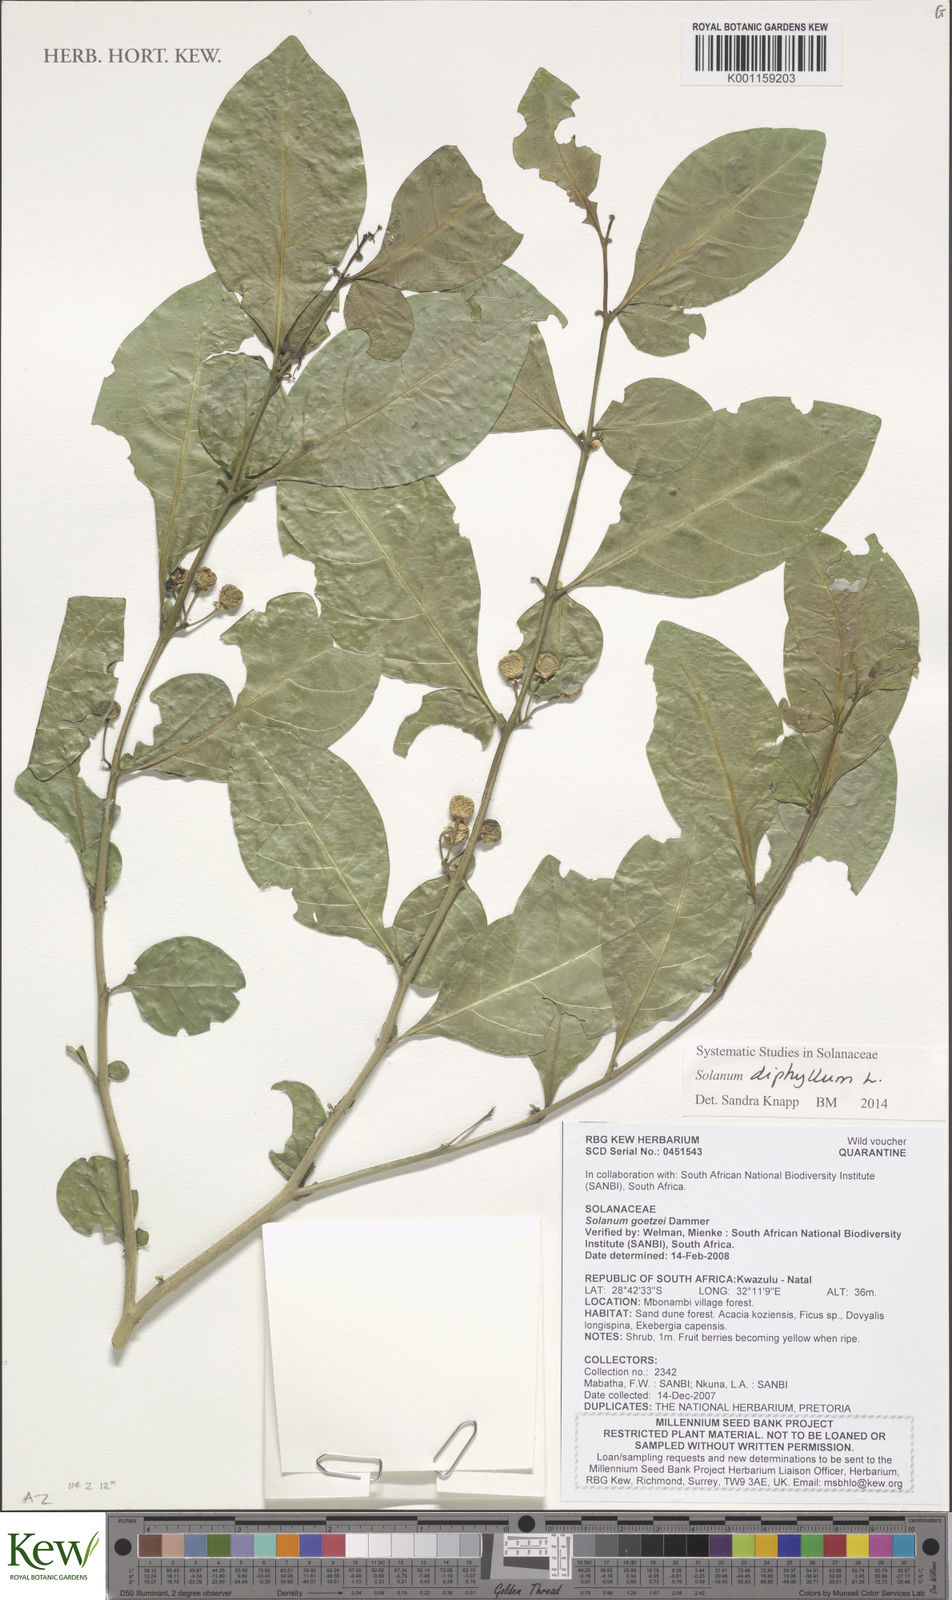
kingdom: Plantae
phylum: Tracheophyta
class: Magnoliopsida
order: Solanales
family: Solanaceae
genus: Solanum
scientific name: Solanum diphyllum
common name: Twoleaf nightshade
